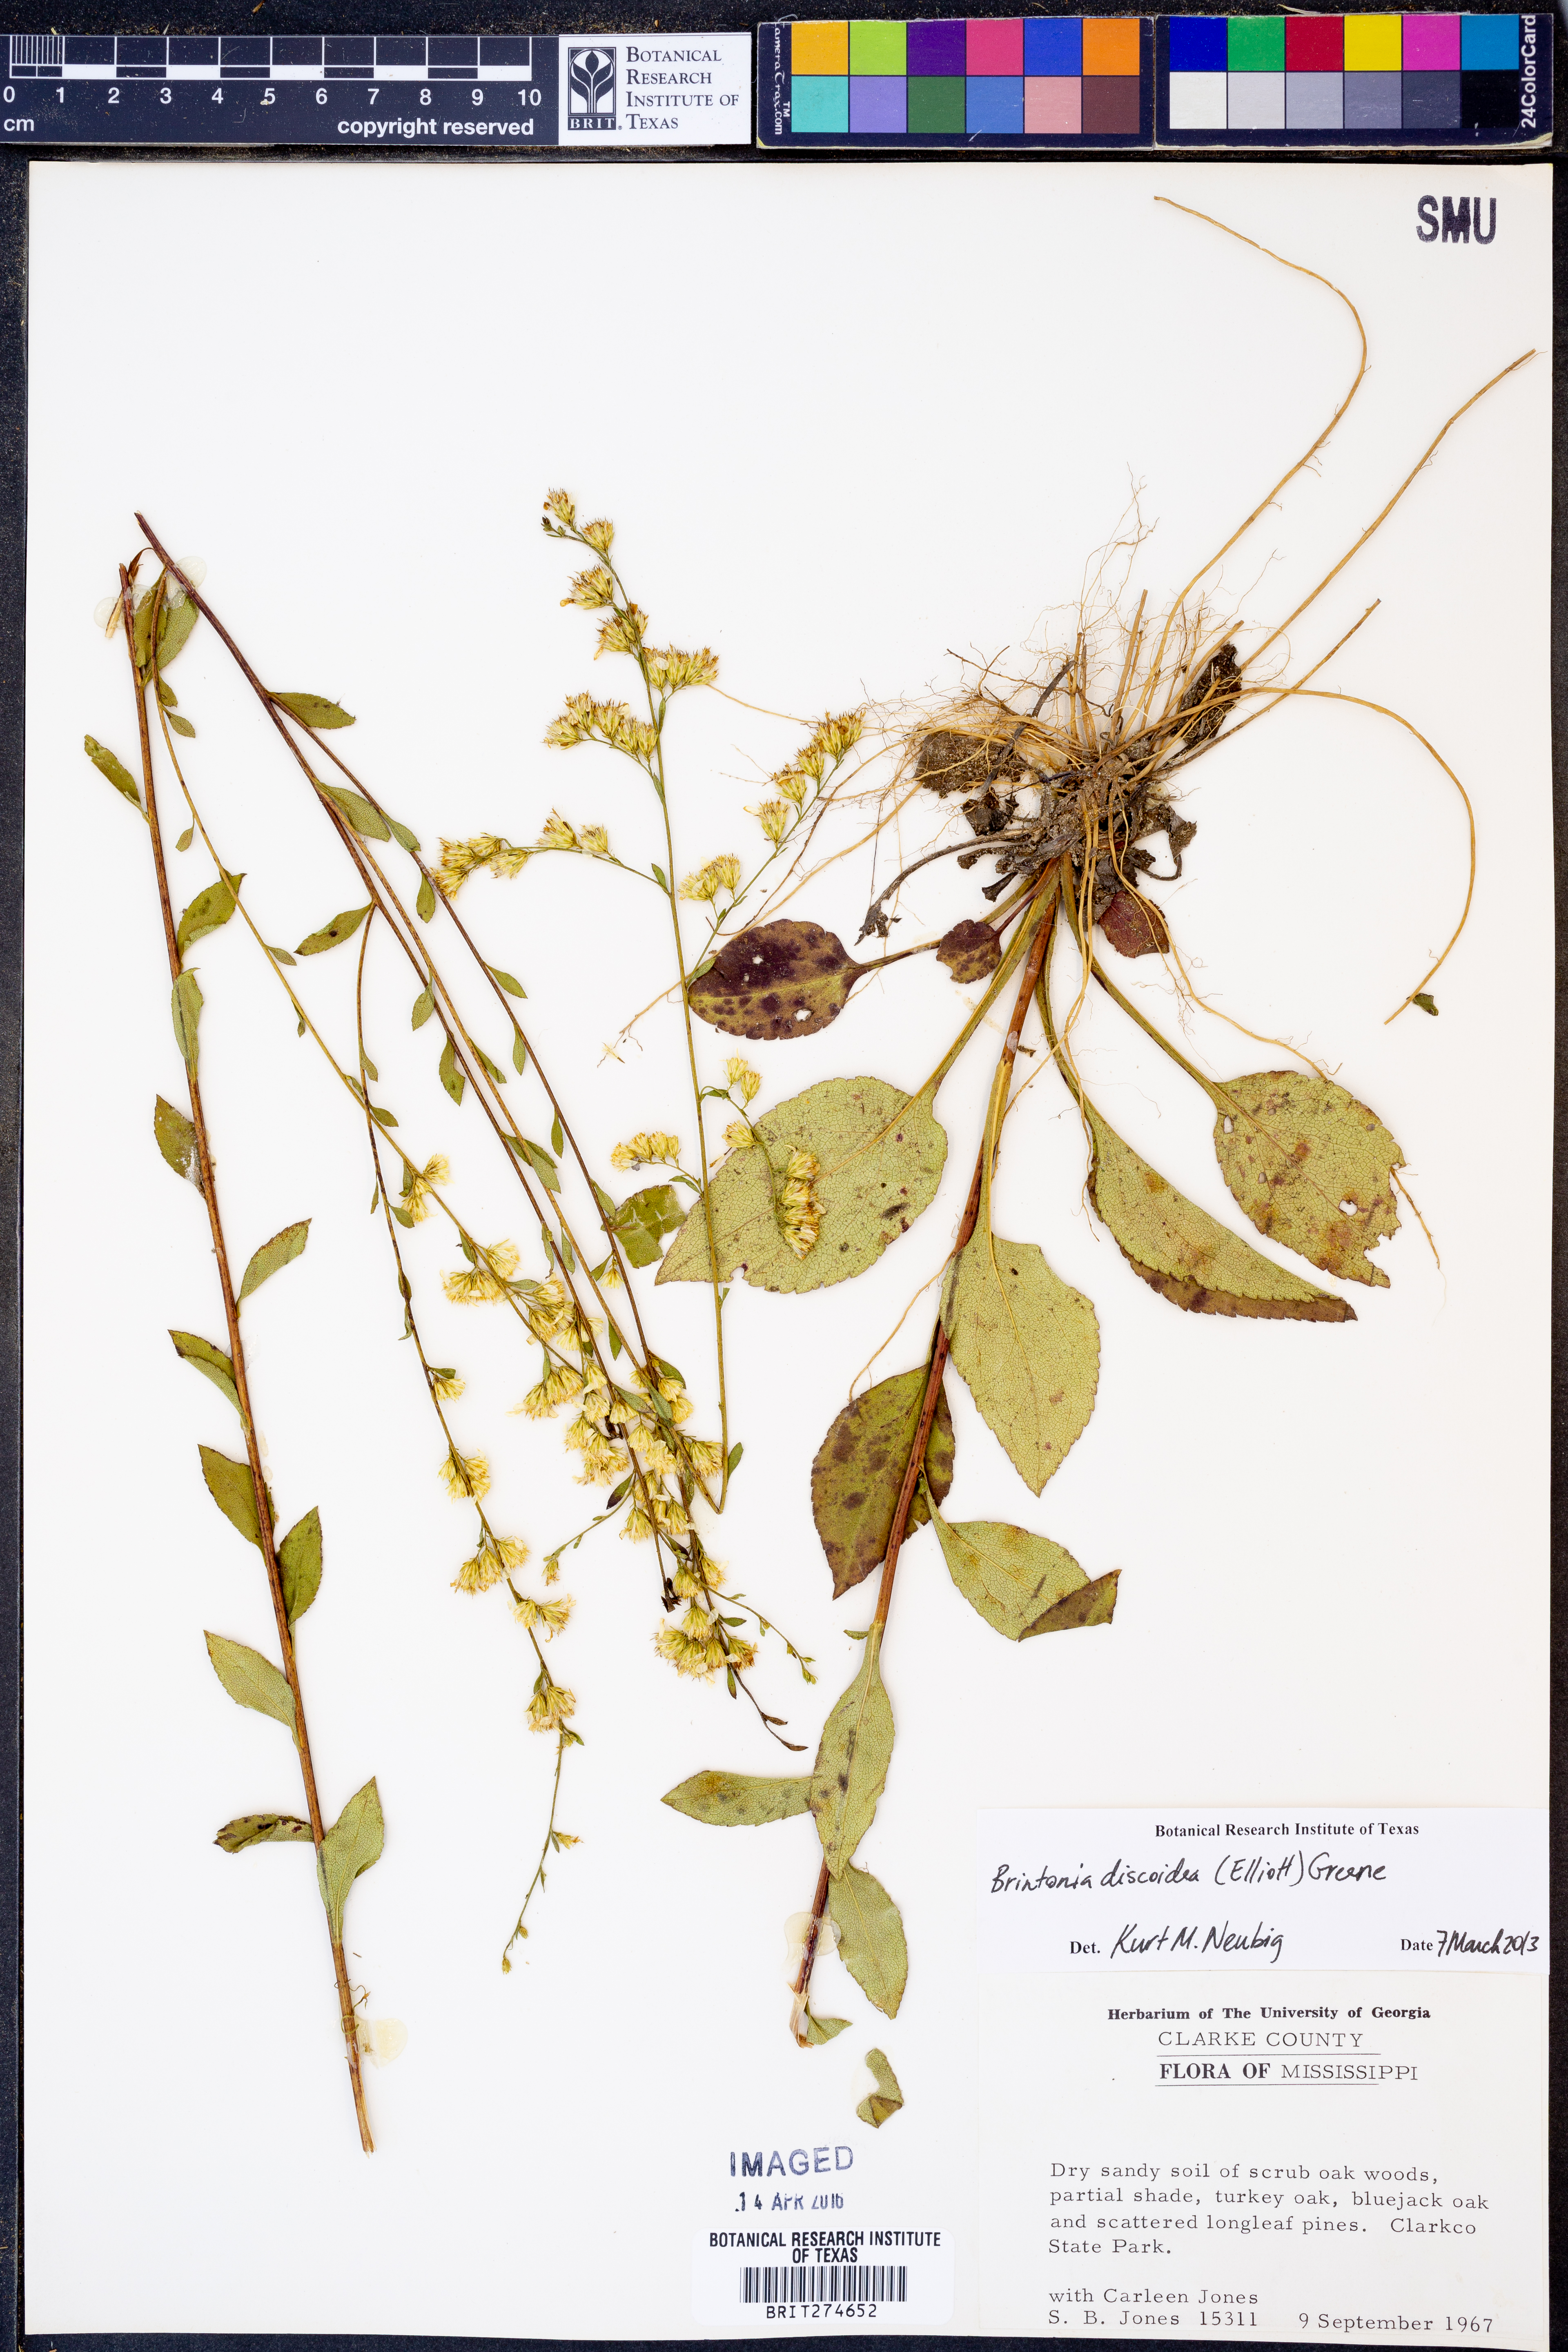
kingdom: Plantae
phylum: Tracheophyta
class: Magnoliopsida
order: Asterales
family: Asteraceae
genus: Solidago
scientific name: Solidago discoidea
